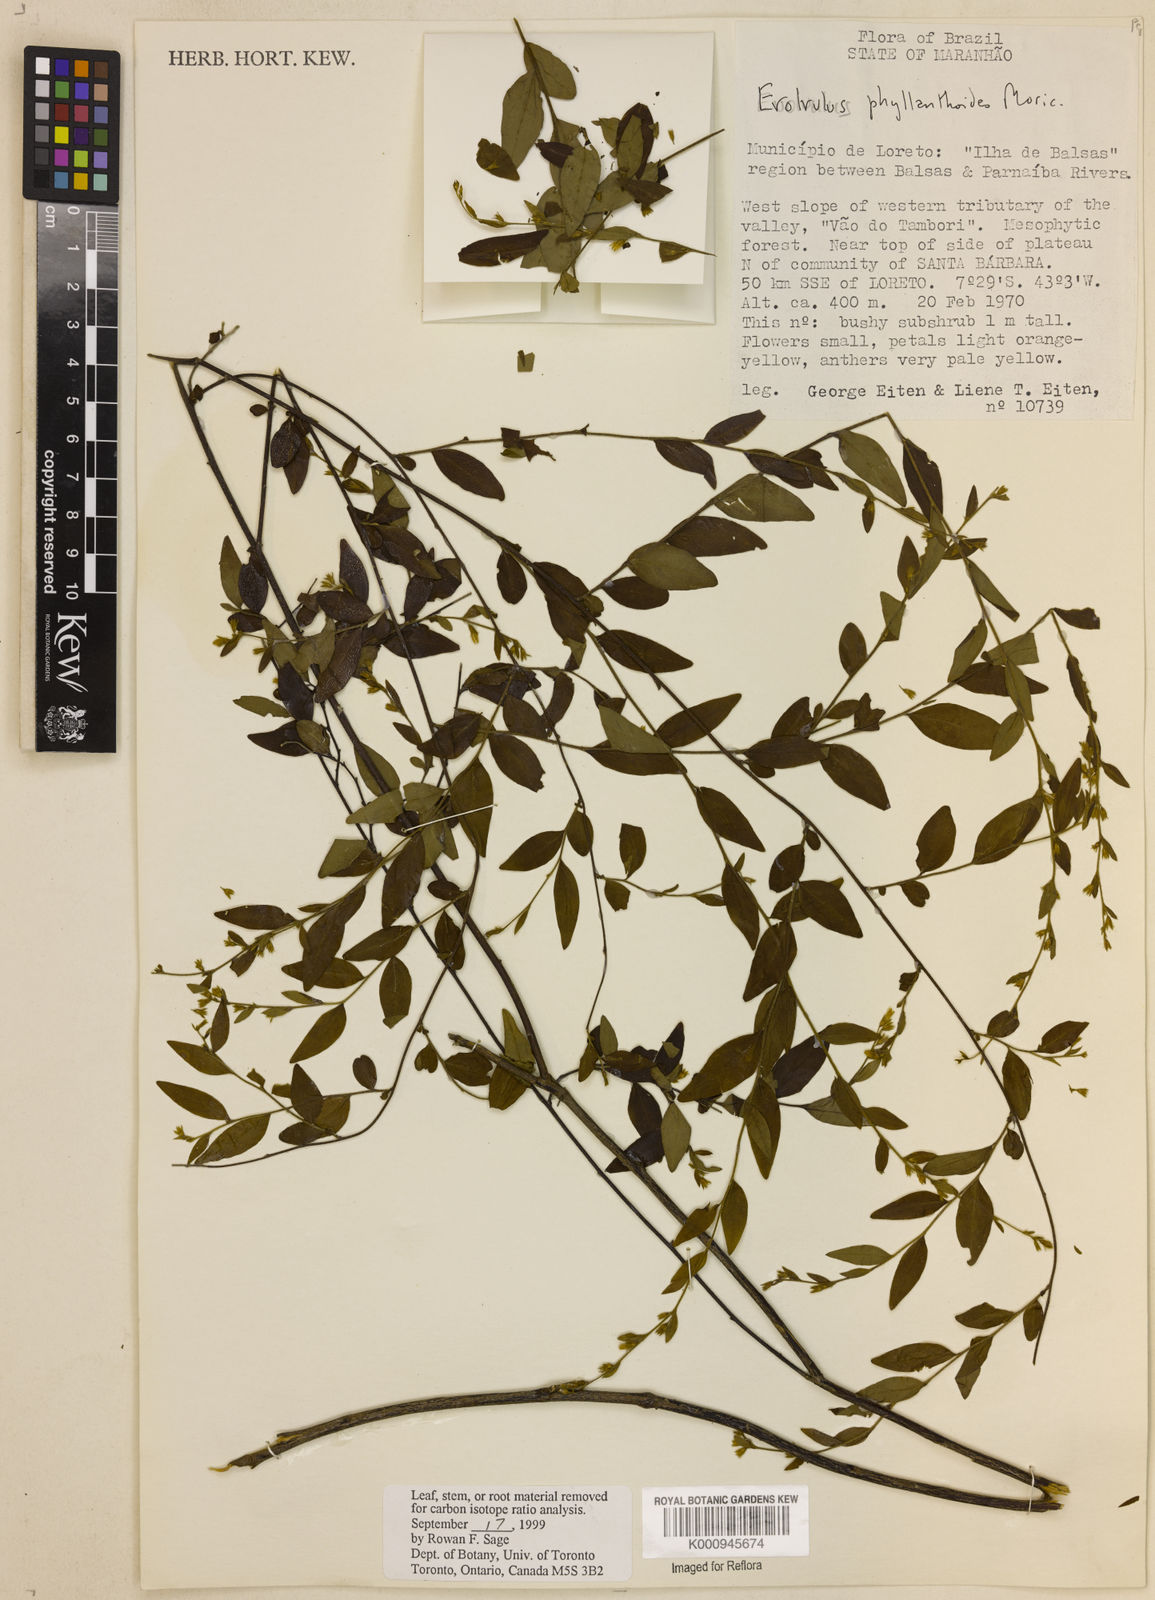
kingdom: Plantae
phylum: Tracheophyta
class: Magnoliopsida
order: Solanales
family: Convolvulaceae
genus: Evolvulus
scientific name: Evolvulus phyllanthoides
